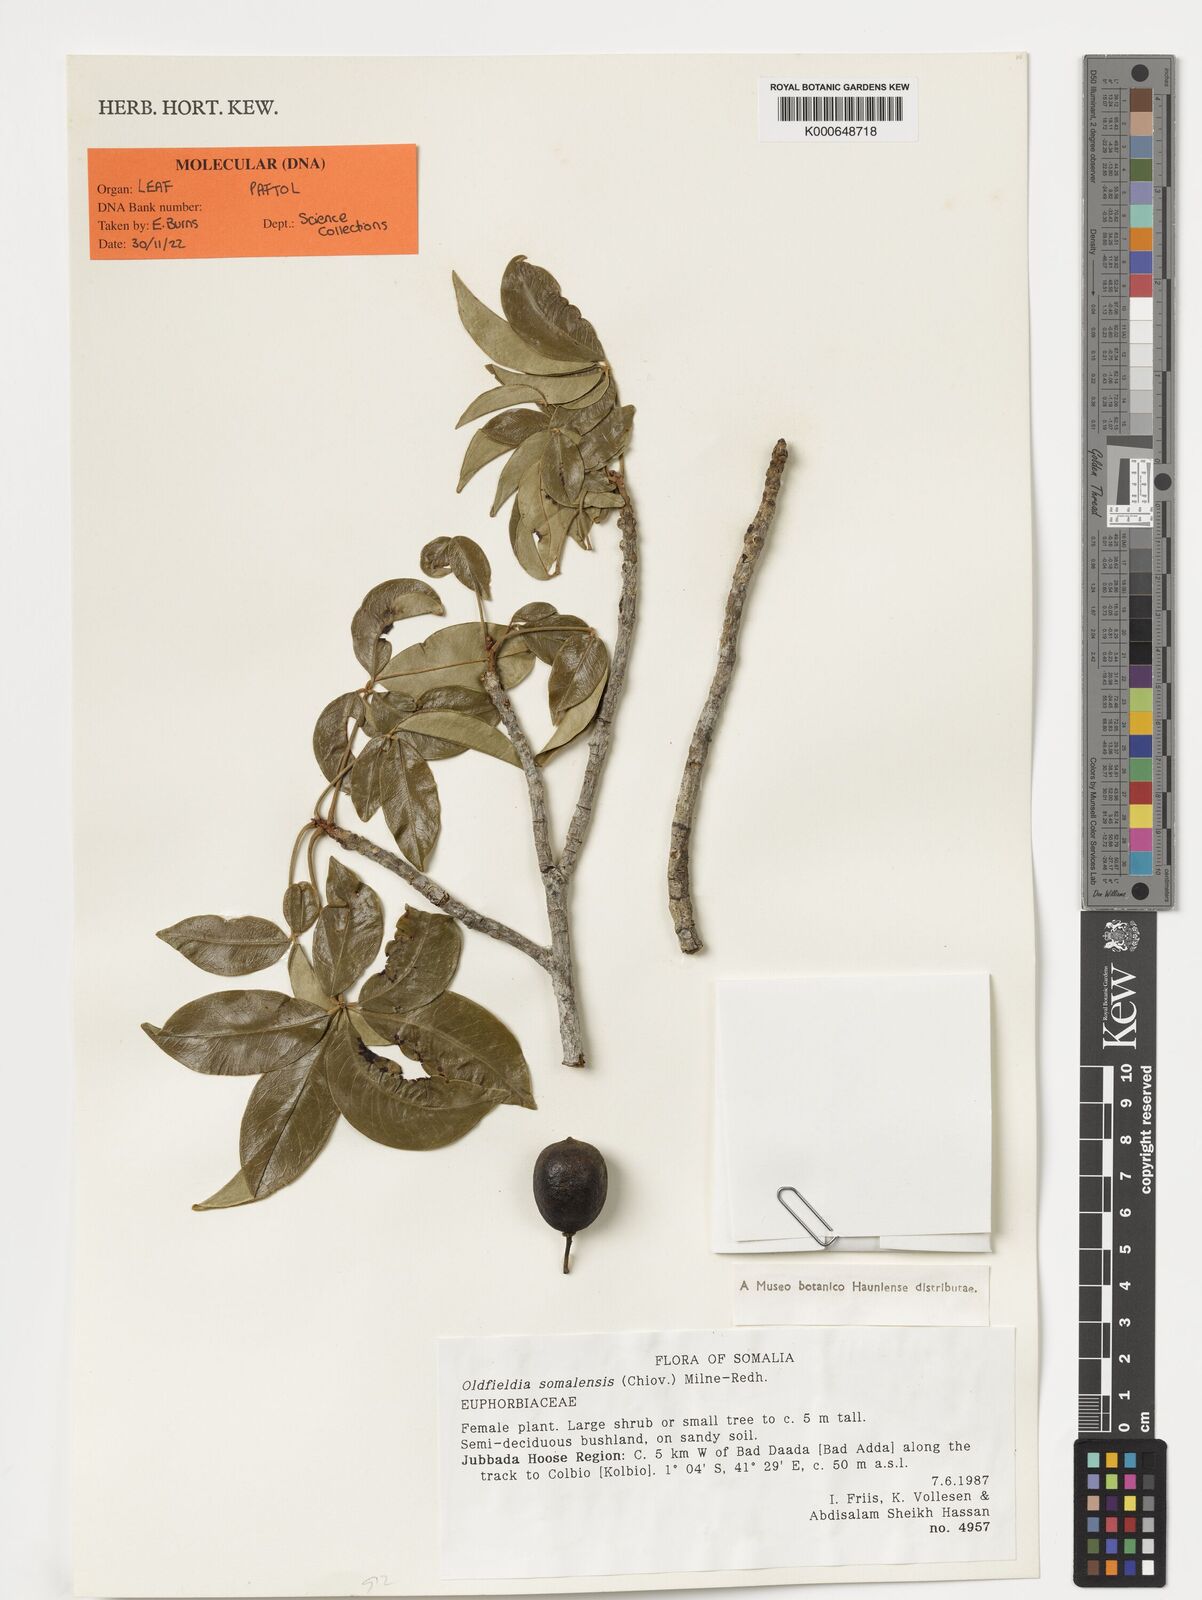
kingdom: Plantae
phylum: Tracheophyta
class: Magnoliopsida
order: Malpighiales
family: Picrodendraceae
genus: Oldfieldia
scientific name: Oldfieldia somalensis
